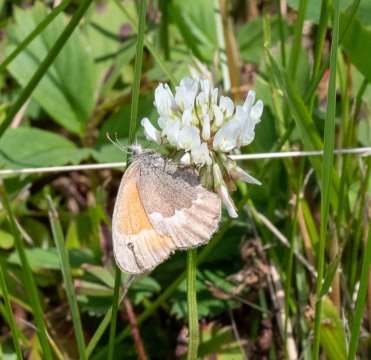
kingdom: Animalia
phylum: Arthropoda
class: Insecta
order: Lepidoptera
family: Nymphalidae
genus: Coenonympha
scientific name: Coenonympha tullia
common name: Large Heath
